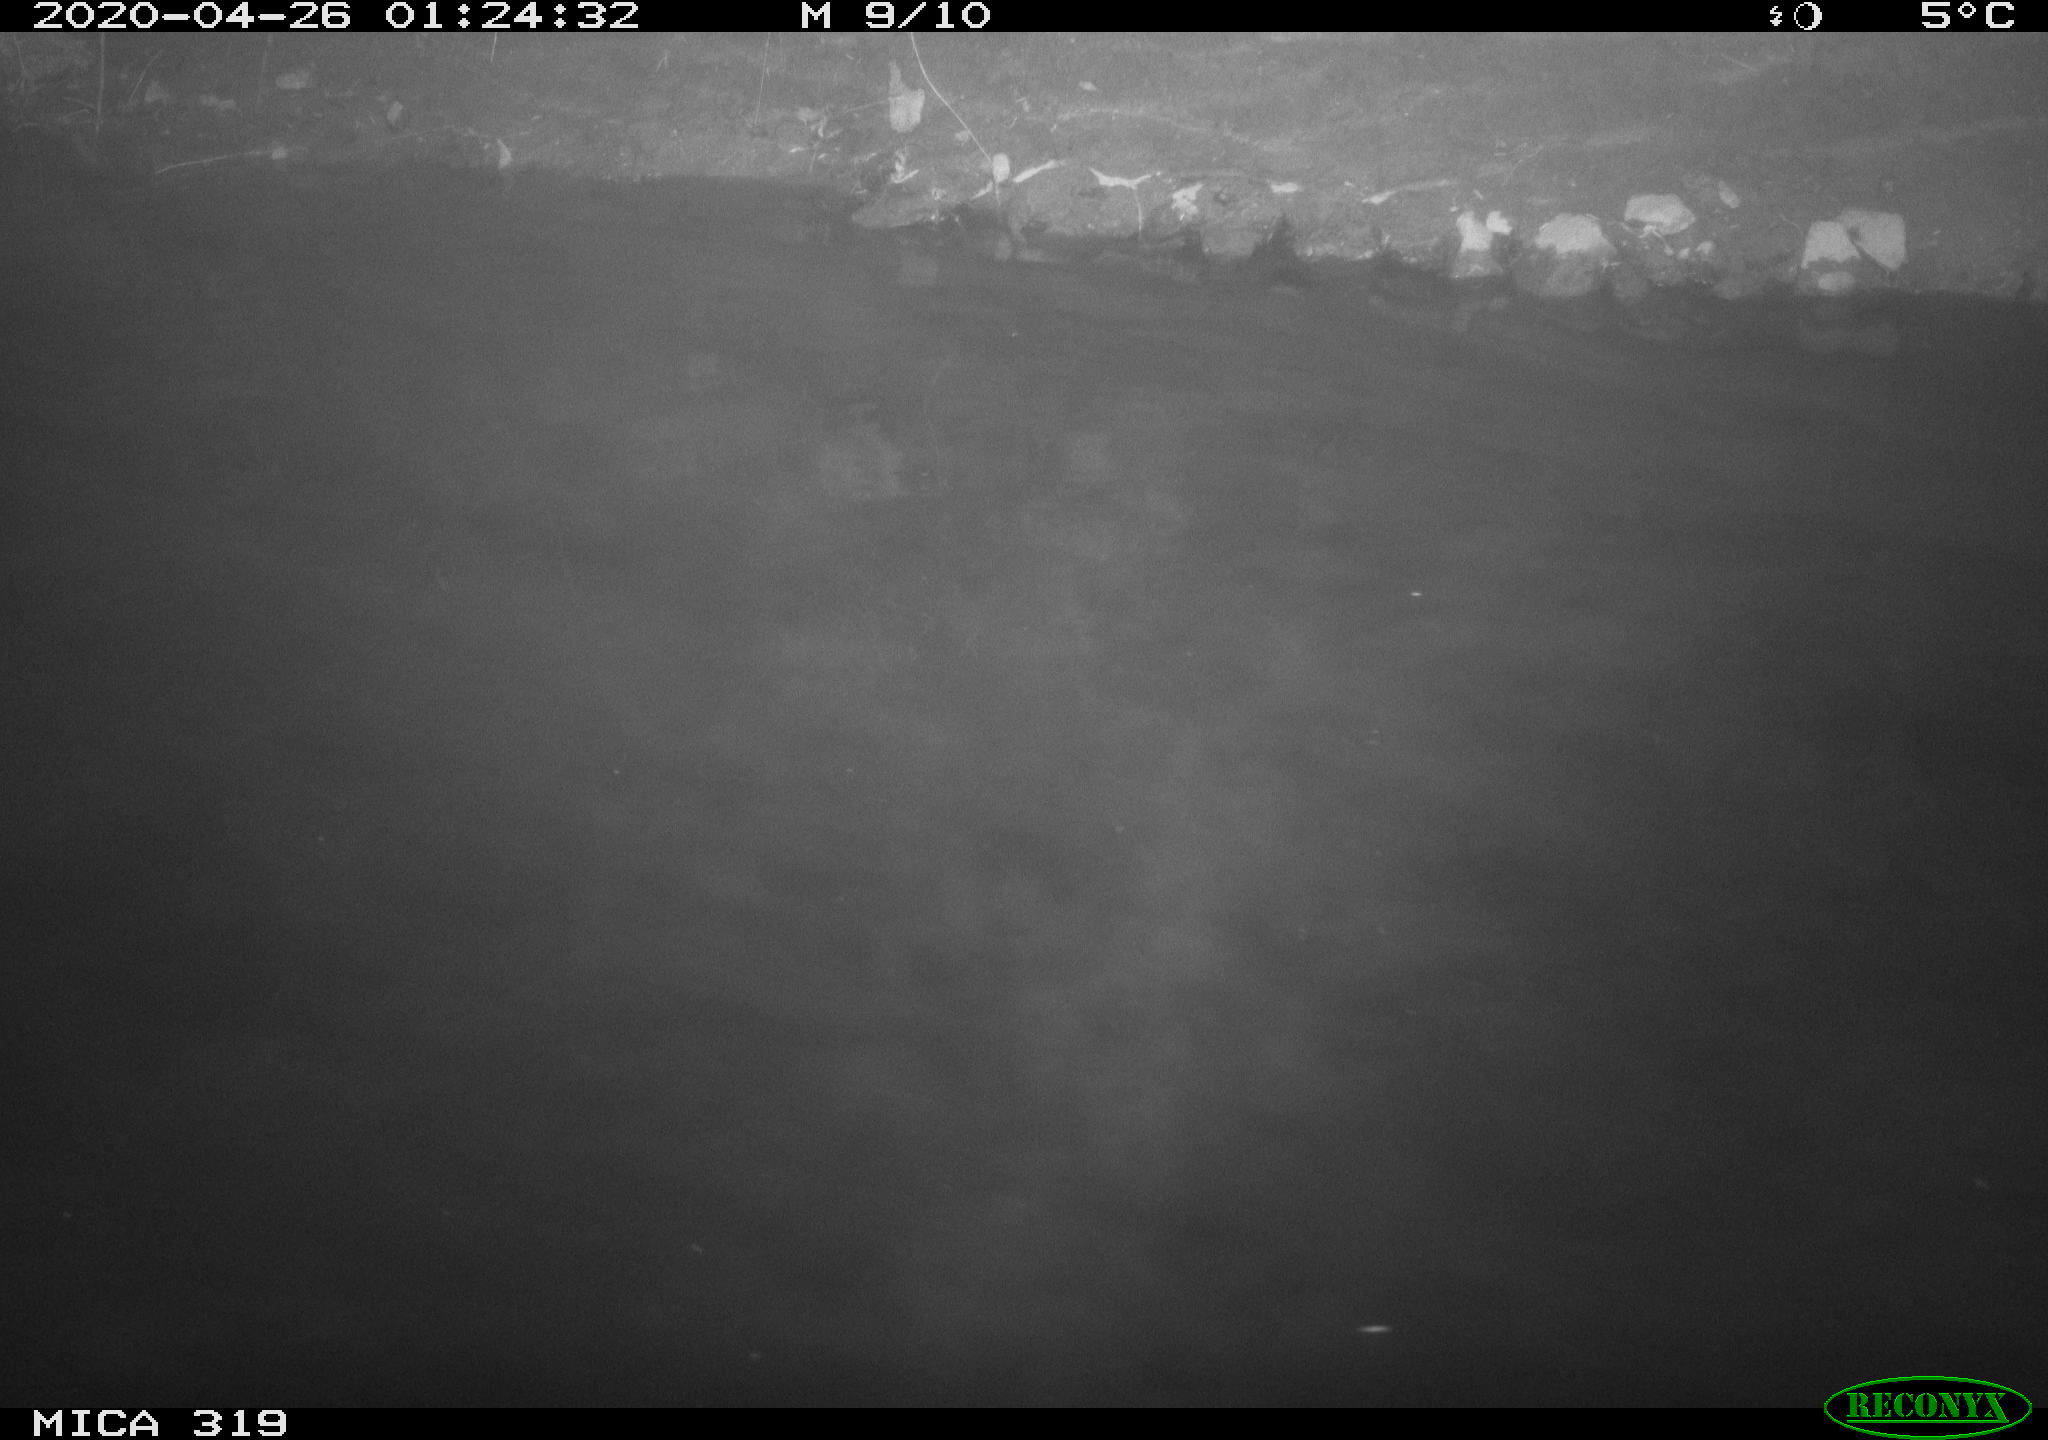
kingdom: Animalia
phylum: Chordata
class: Aves
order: Anseriformes
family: Anatidae
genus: Anas
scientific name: Anas platyrhynchos
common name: Mallard
